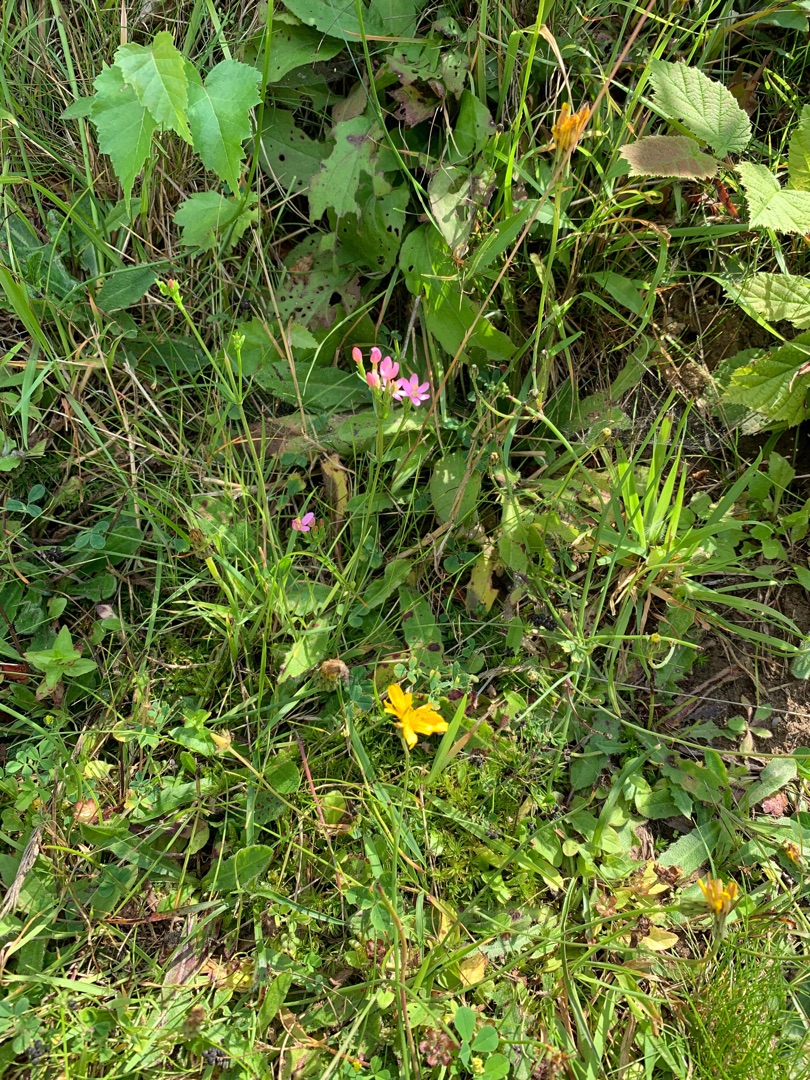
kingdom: Plantae
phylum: Tracheophyta
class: Magnoliopsida
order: Gentianales
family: Gentianaceae
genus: Centaurium
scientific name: Centaurium
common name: Tusindgyldenslægten
